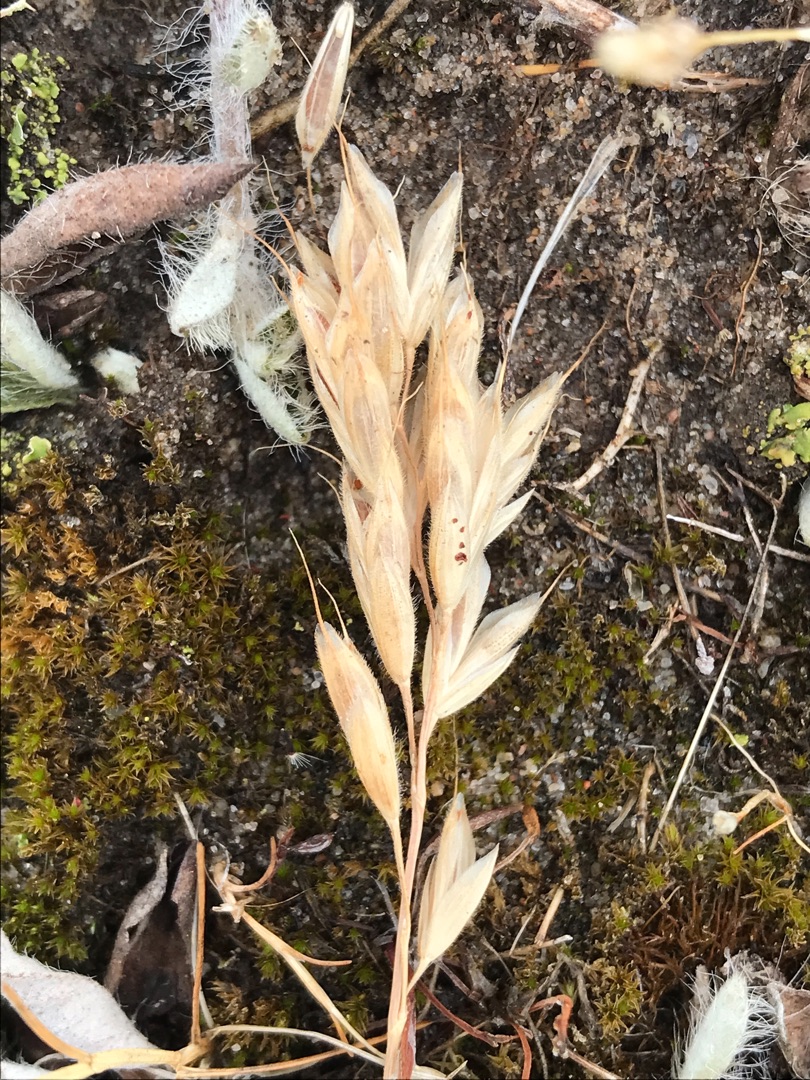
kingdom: Plantae
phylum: Tracheophyta
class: Liliopsida
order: Poales
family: Poaceae
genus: Bromus
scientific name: Bromus hordeaceus
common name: Blød hejre
